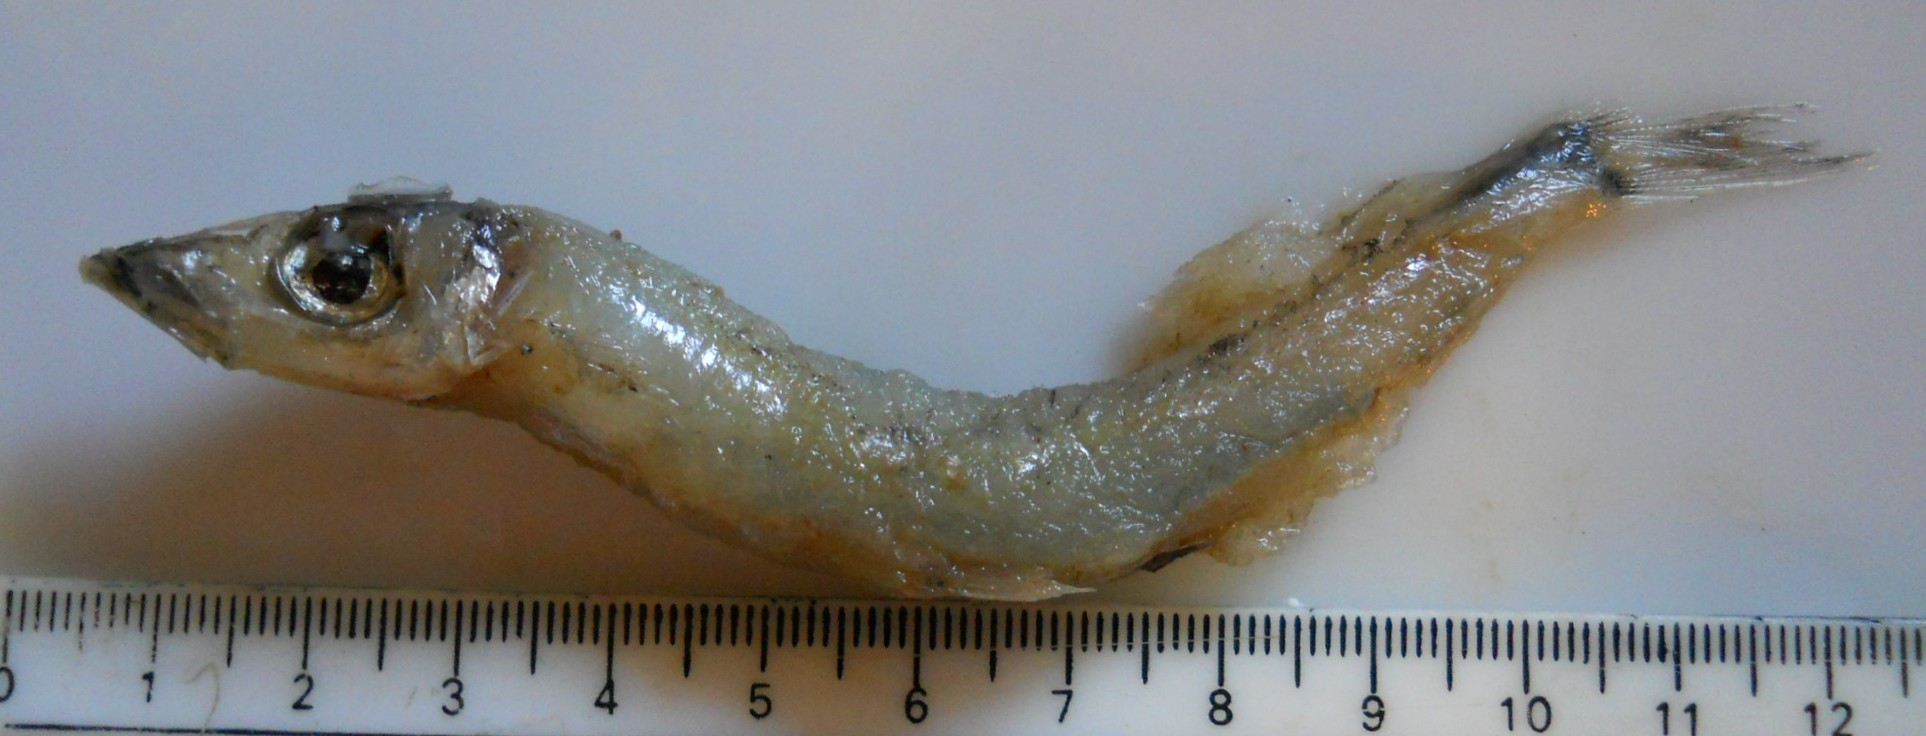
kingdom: Animalia
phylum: Chordata
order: Osmeriformes
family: Argentinidae
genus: Argentina
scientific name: Argentina euchus
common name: Argentine
